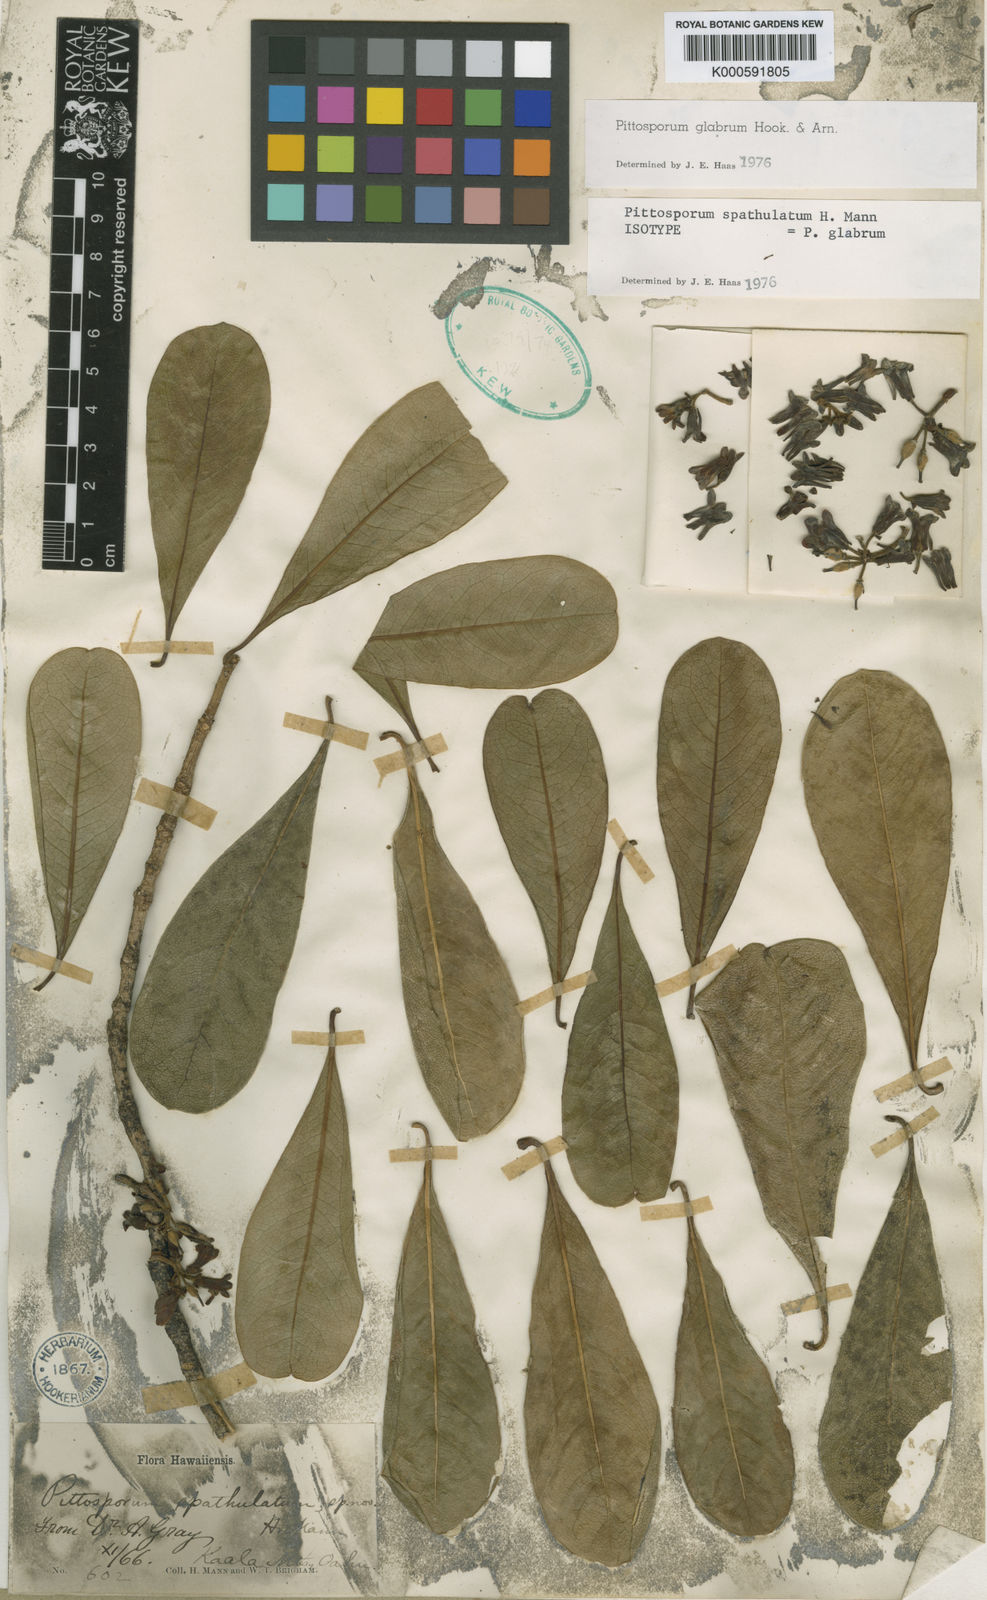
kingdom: Plantae
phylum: Tracheophyta
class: Magnoliopsida
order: Apiales
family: Pittosporaceae
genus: Pittosporum
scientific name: Pittosporum glabrum
